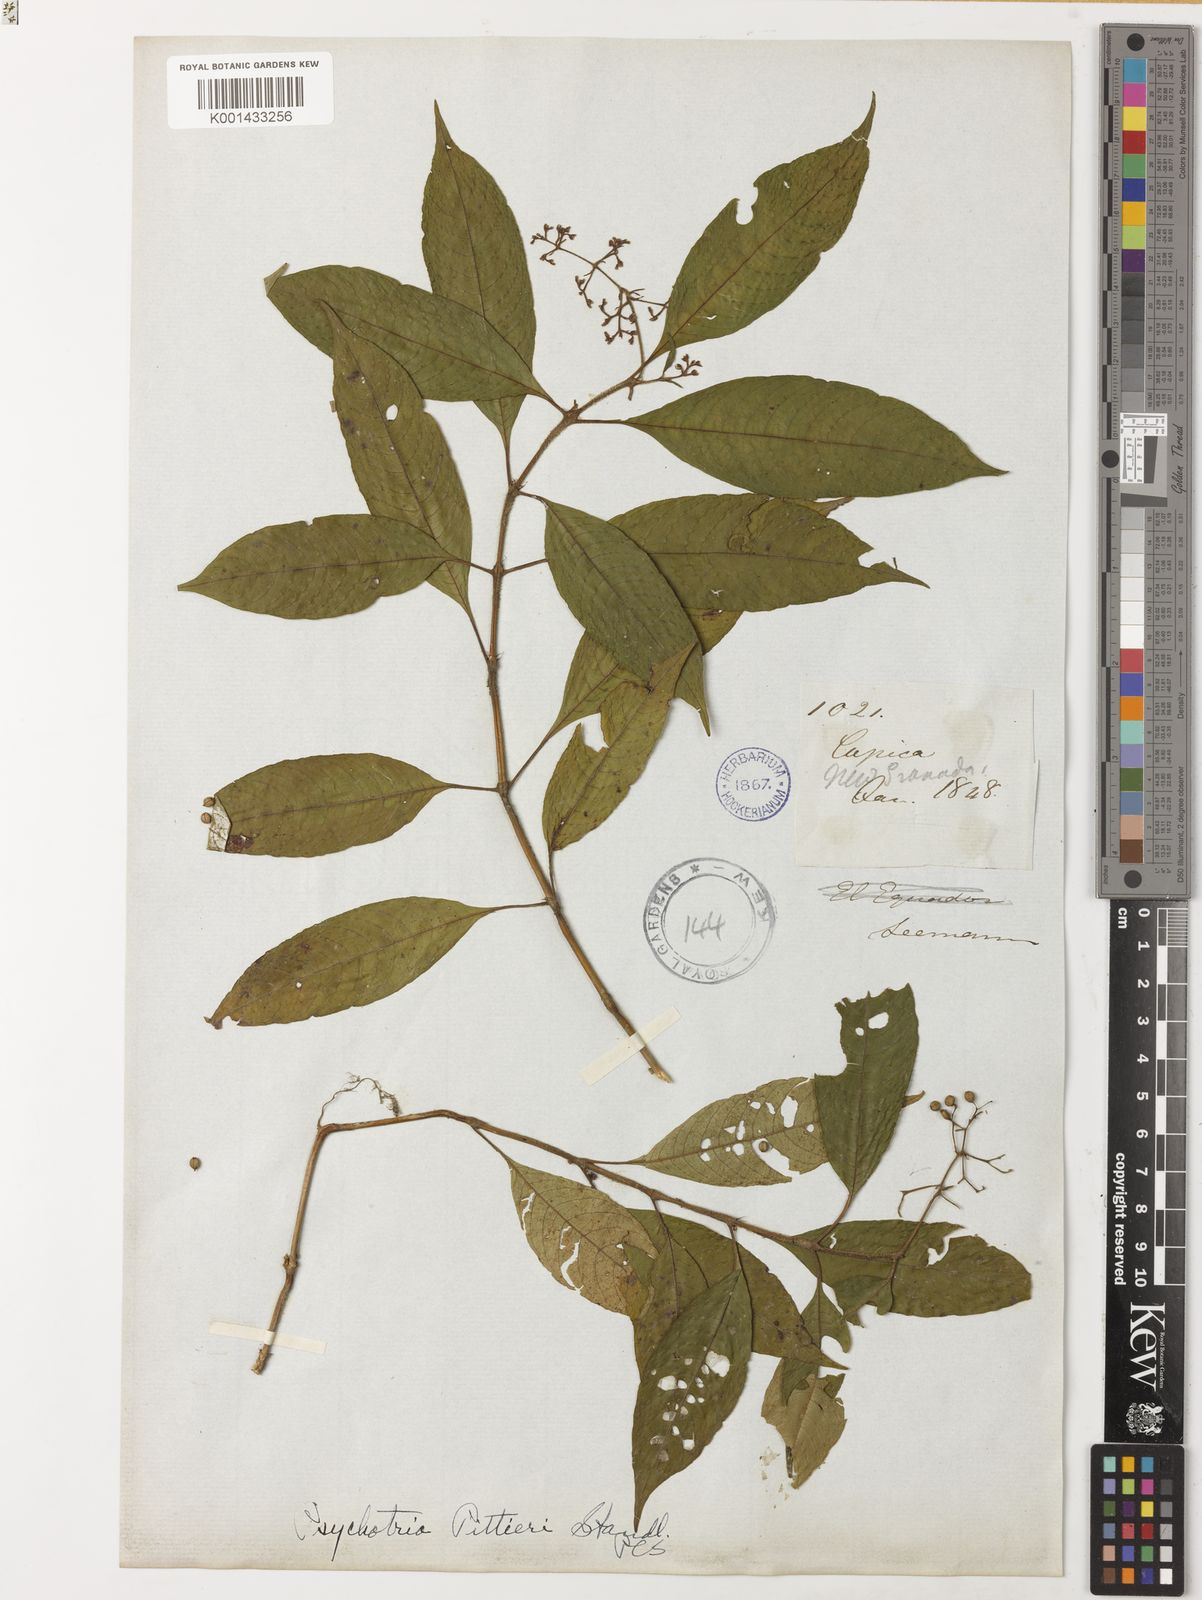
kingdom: Plantae
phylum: Tracheophyta
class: Magnoliopsida
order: Gentianales
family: Rubiaceae
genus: Palicourea
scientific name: Palicourea cyanococca
